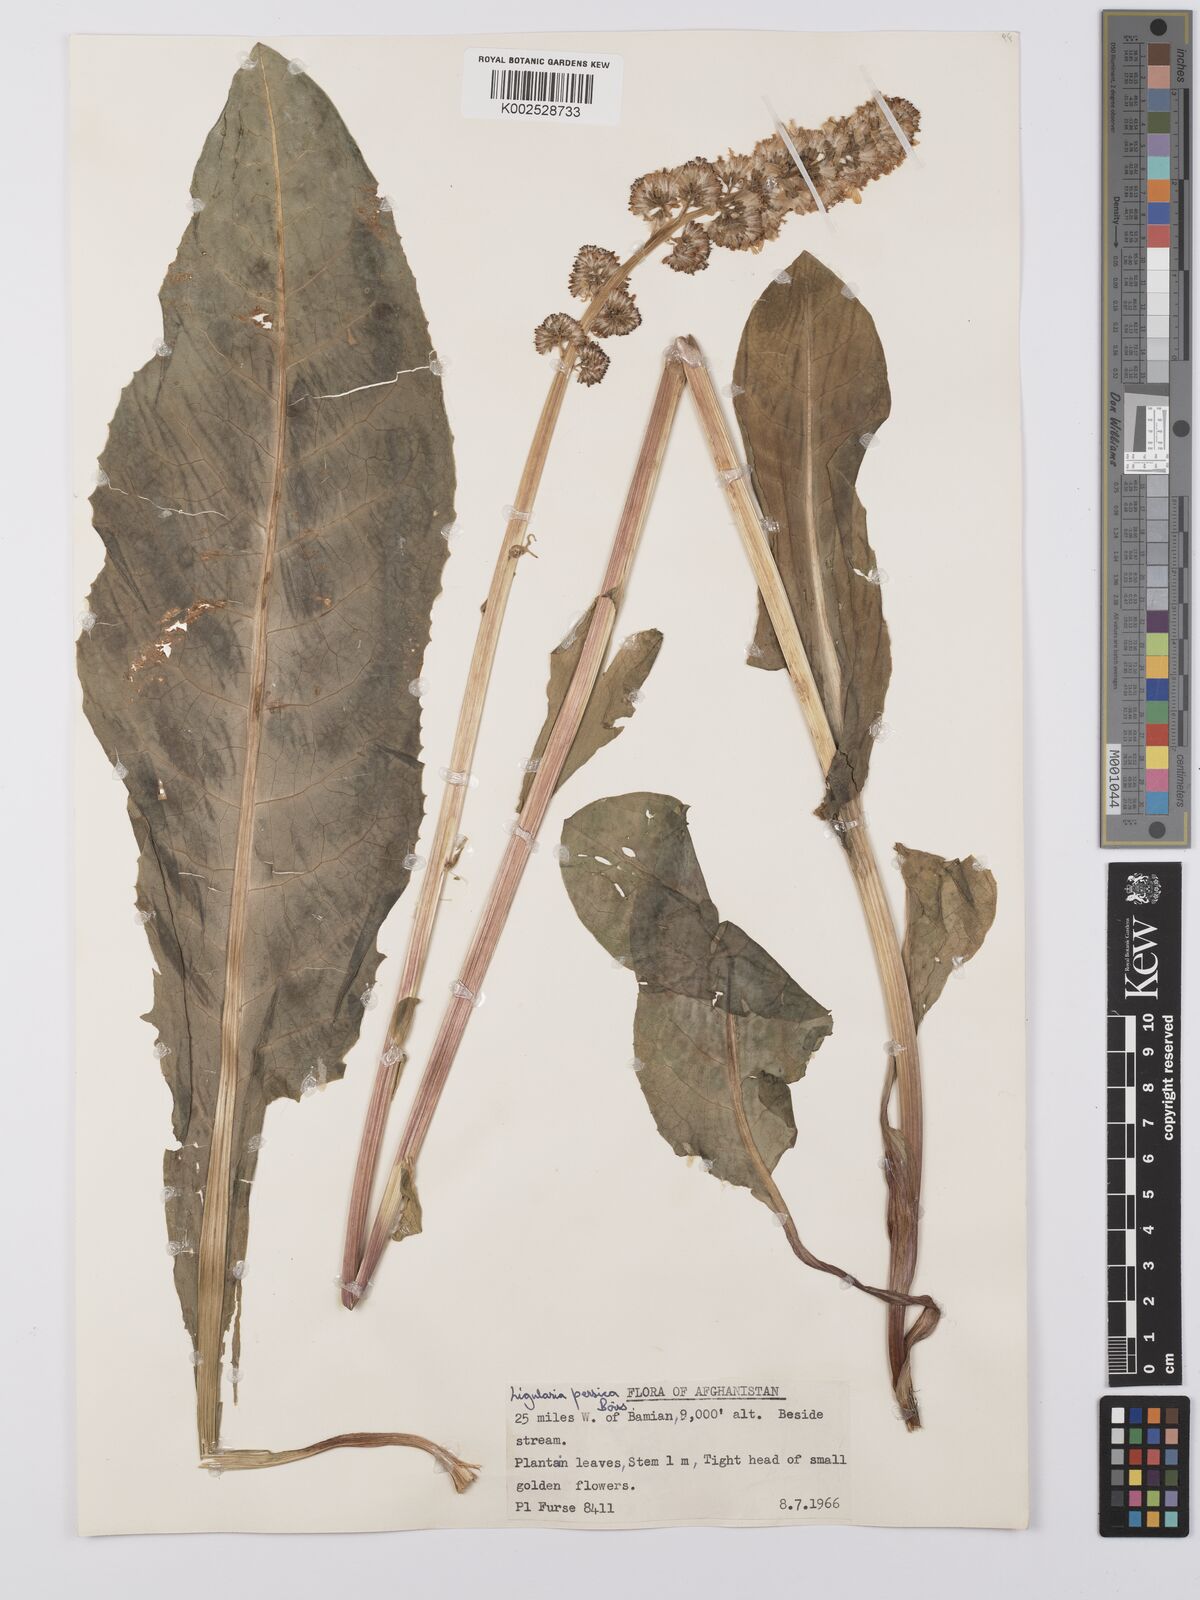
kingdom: Plantae
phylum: Tracheophyta
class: Magnoliopsida
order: Asterales
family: Asteraceae
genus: Ligularia
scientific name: Ligularia afghanica
